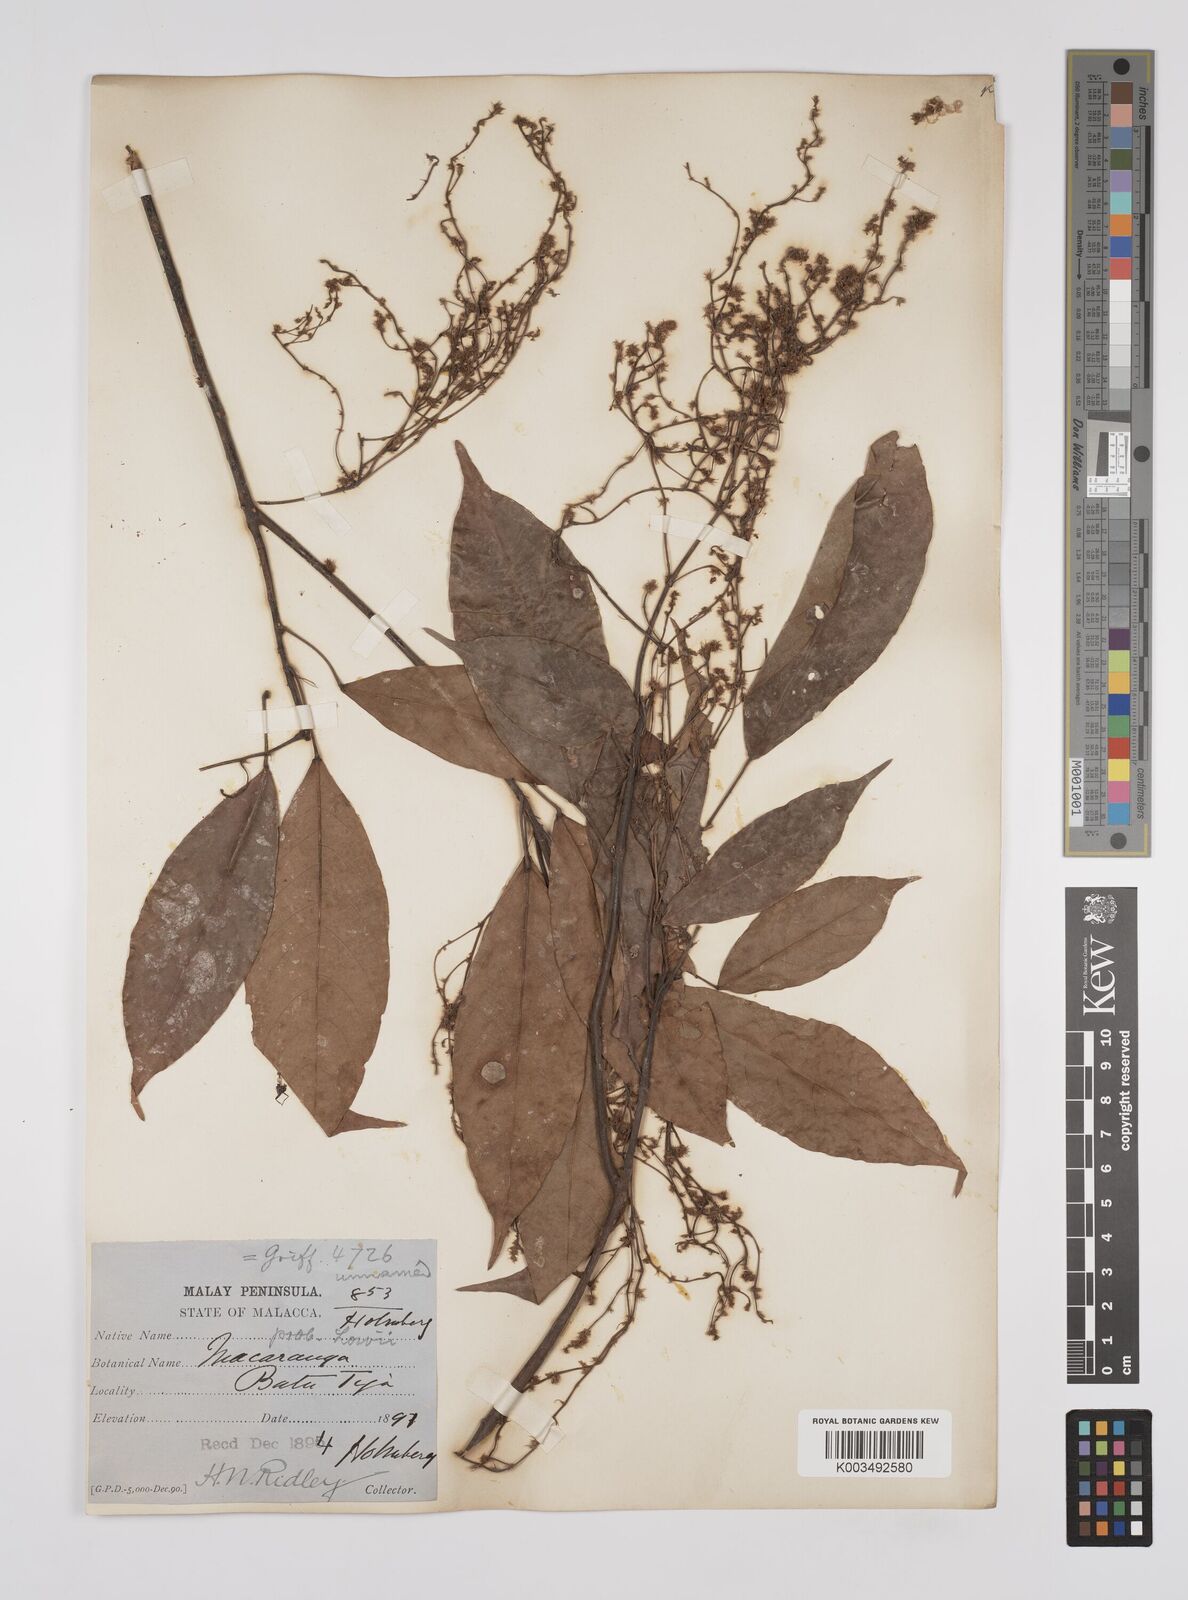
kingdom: Plantae
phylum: Tracheophyta
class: Magnoliopsida
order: Malpighiales
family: Euphorbiaceae
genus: Macaranga
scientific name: Macaranga lowii
